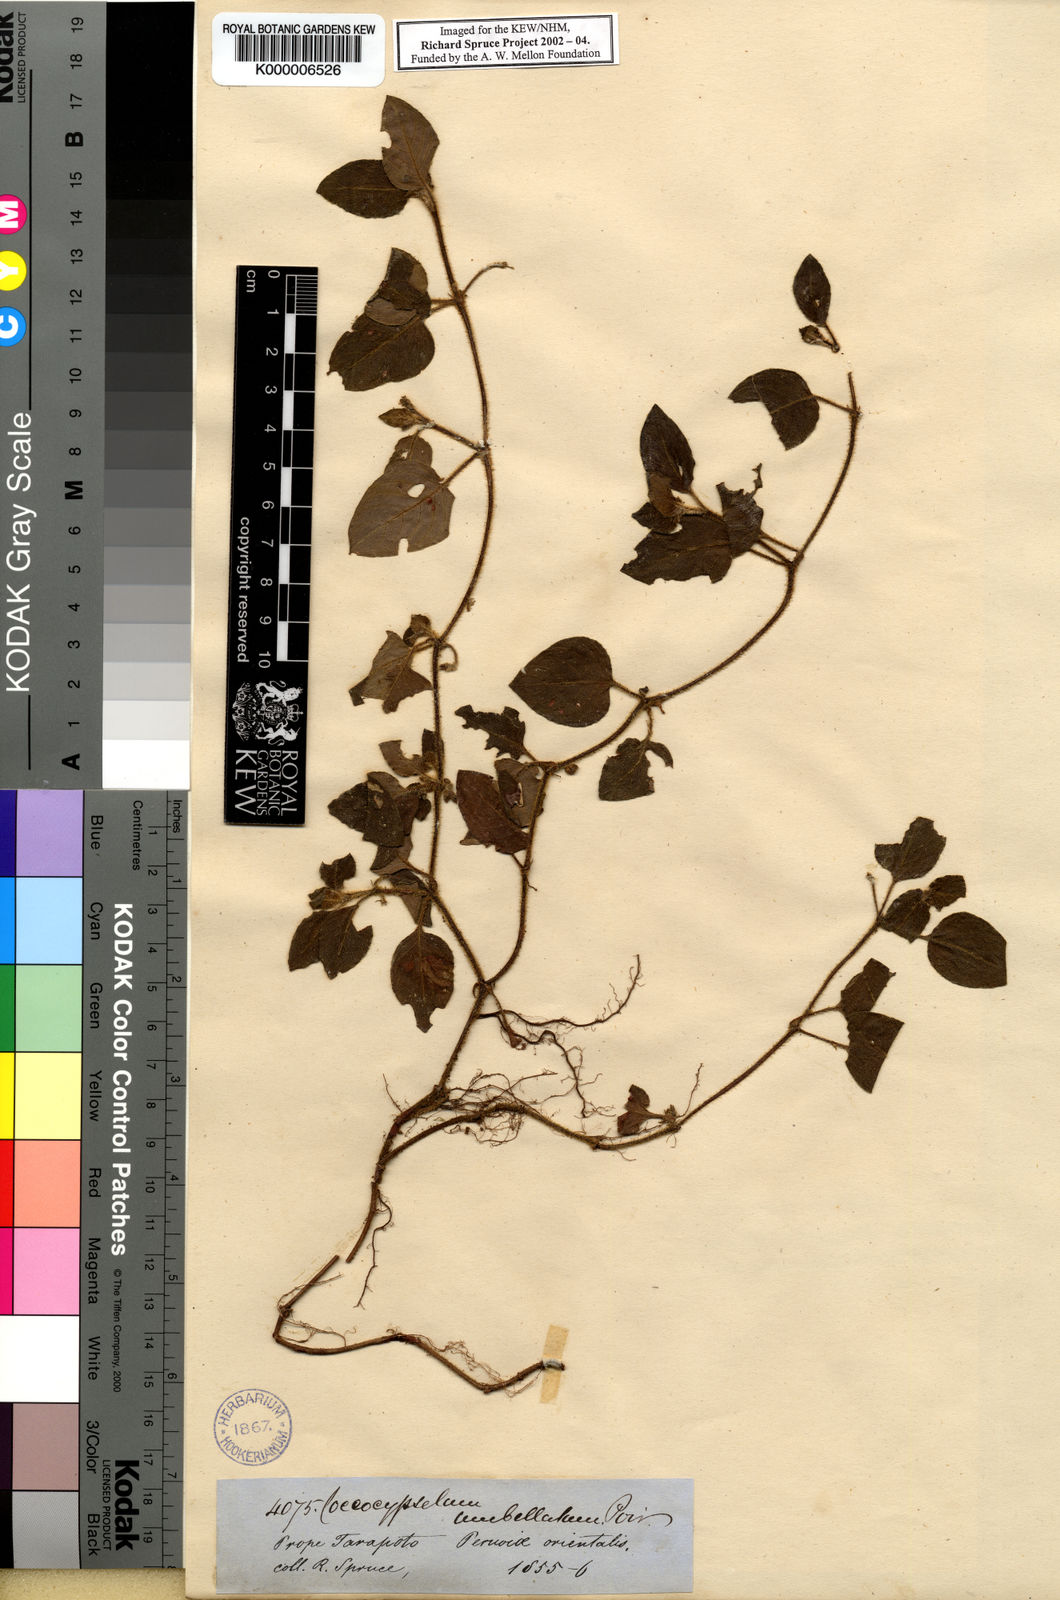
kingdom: Plantae
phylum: Tracheophyta
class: Magnoliopsida
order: Gentianales
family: Rubiaceae
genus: Coccocypselum
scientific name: Coccocypselum condalia
